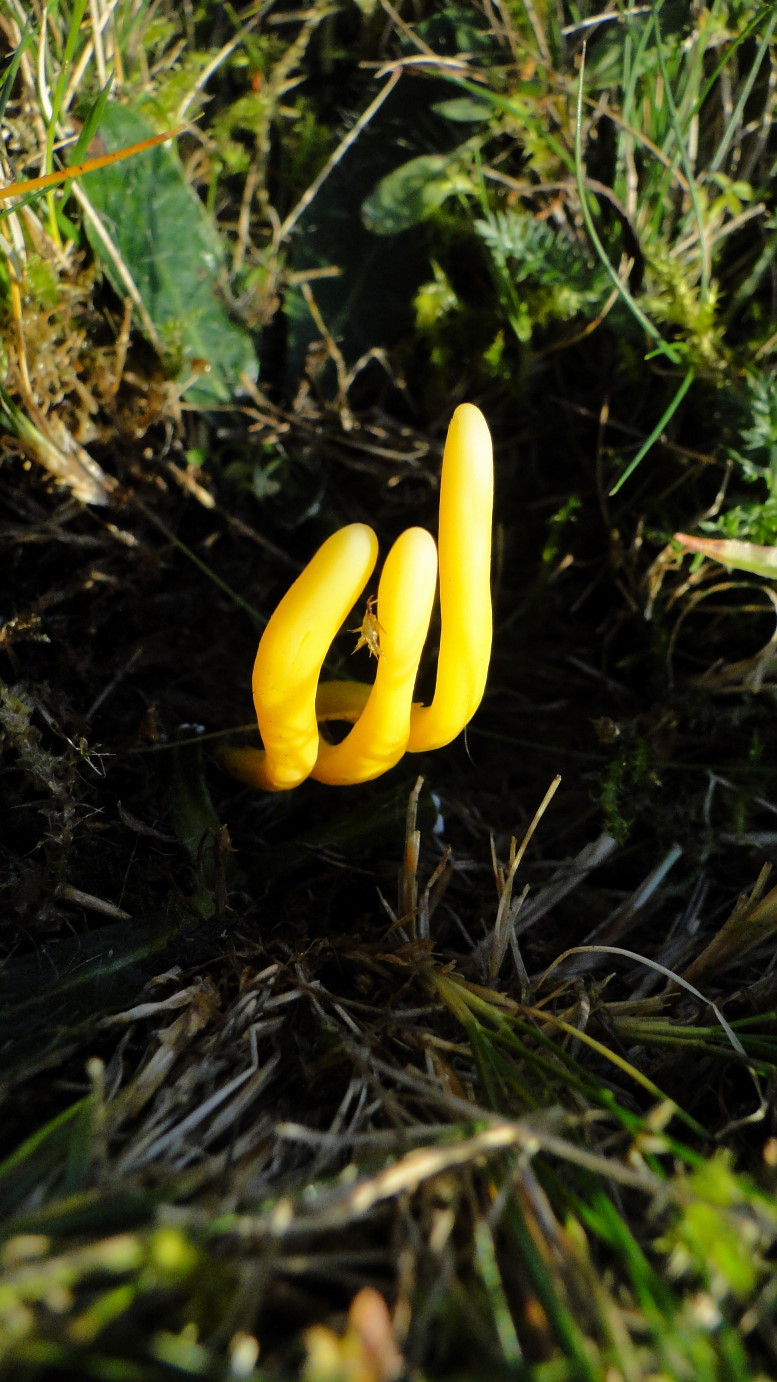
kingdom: Fungi
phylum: Basidiomycota
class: Agaricomycetes
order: Agaricales
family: Clavariaceae
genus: Clavulinopsis
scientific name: Clavulinopsis helvola
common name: orangegul køllesvamp
